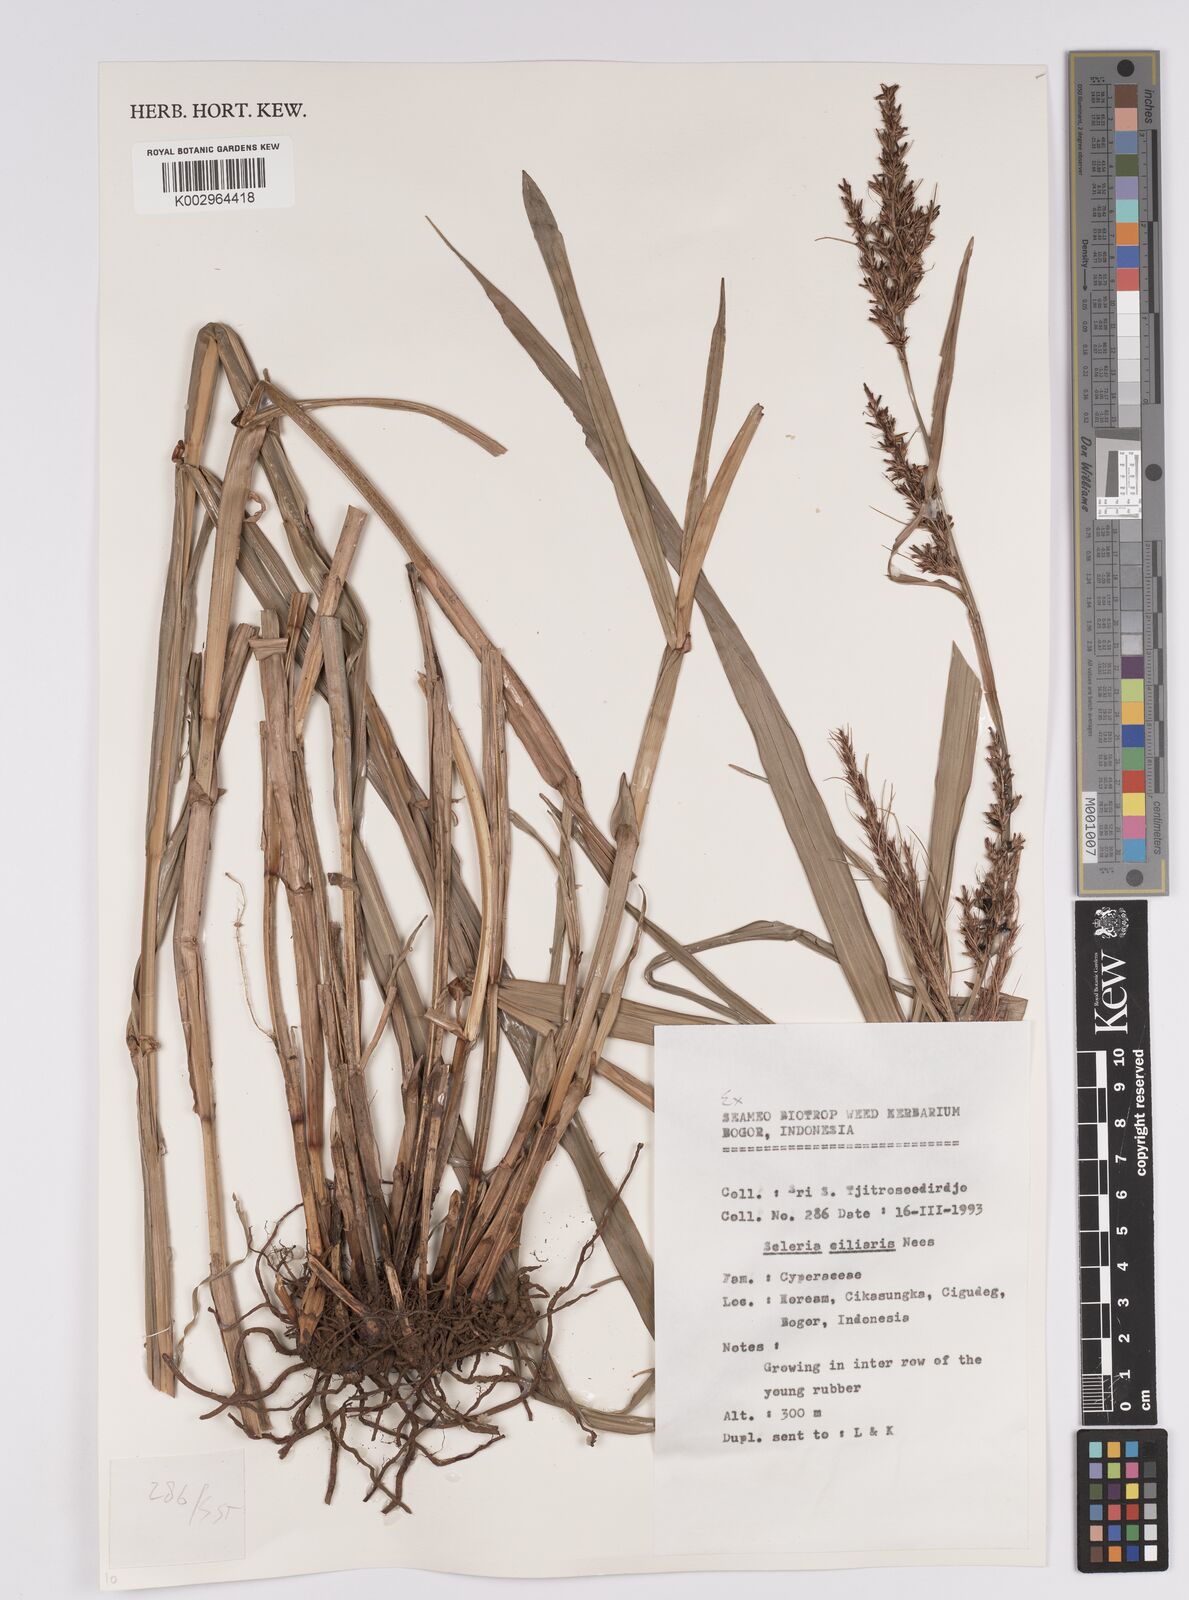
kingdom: Plantae
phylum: Tracheophyta
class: Liliopsida
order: Poales
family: Cyperaceae
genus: Scleria
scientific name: Scleria ciliaris
